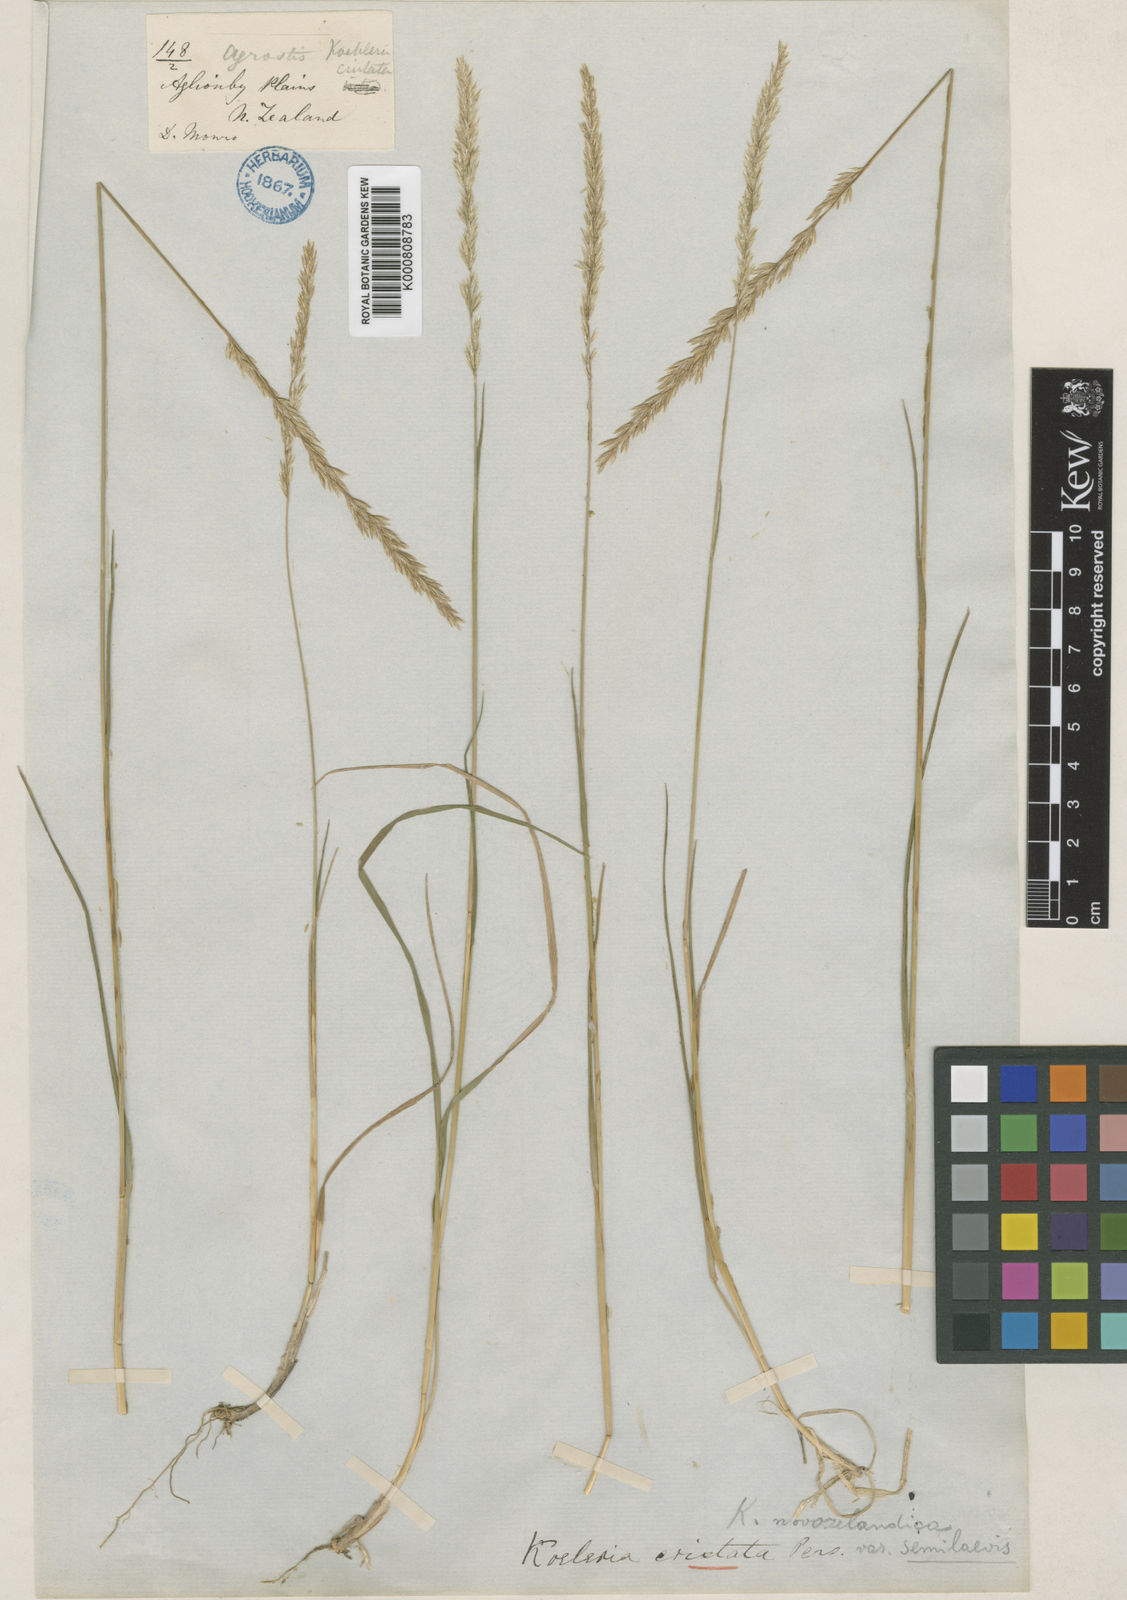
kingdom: Plantae
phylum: Tracheophyta
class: Liliopsida
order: Poales
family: Poaceae
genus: Koeleria
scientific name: Koeleria novozelandica
